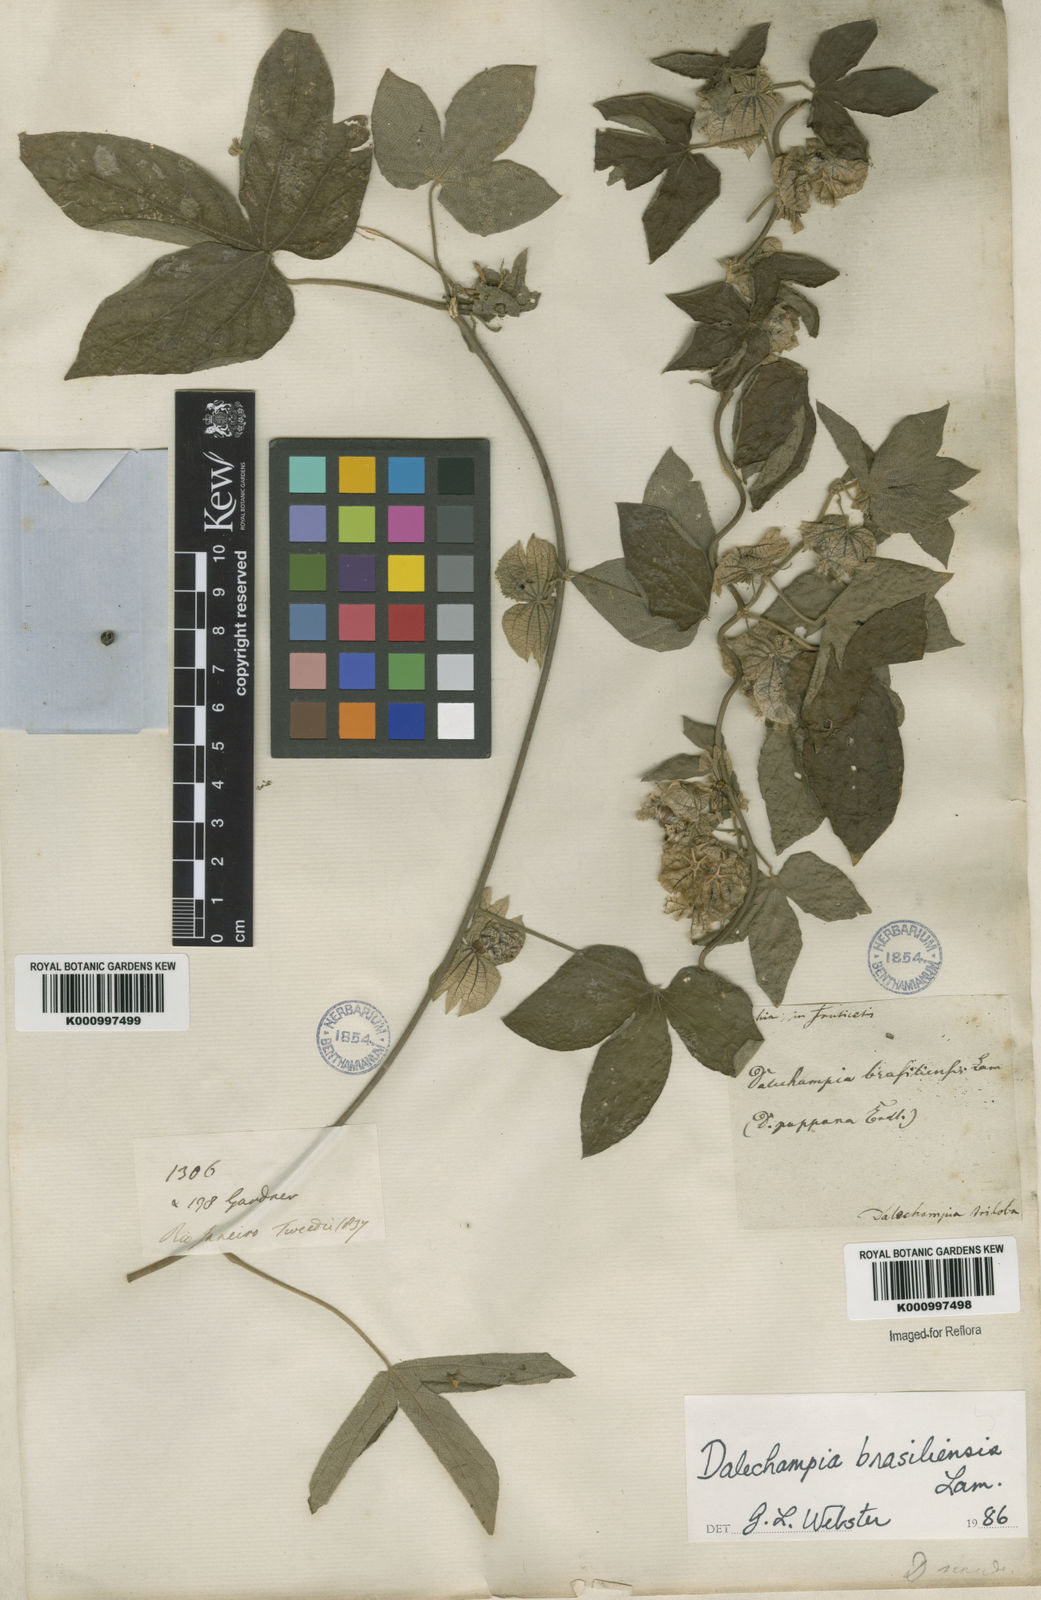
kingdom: Plantae
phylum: Tracheophyta
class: Magnoliopsida
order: Malpighiales
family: Euphorbiaceae
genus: Dalechampia
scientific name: Dalechampia brasiliensis
